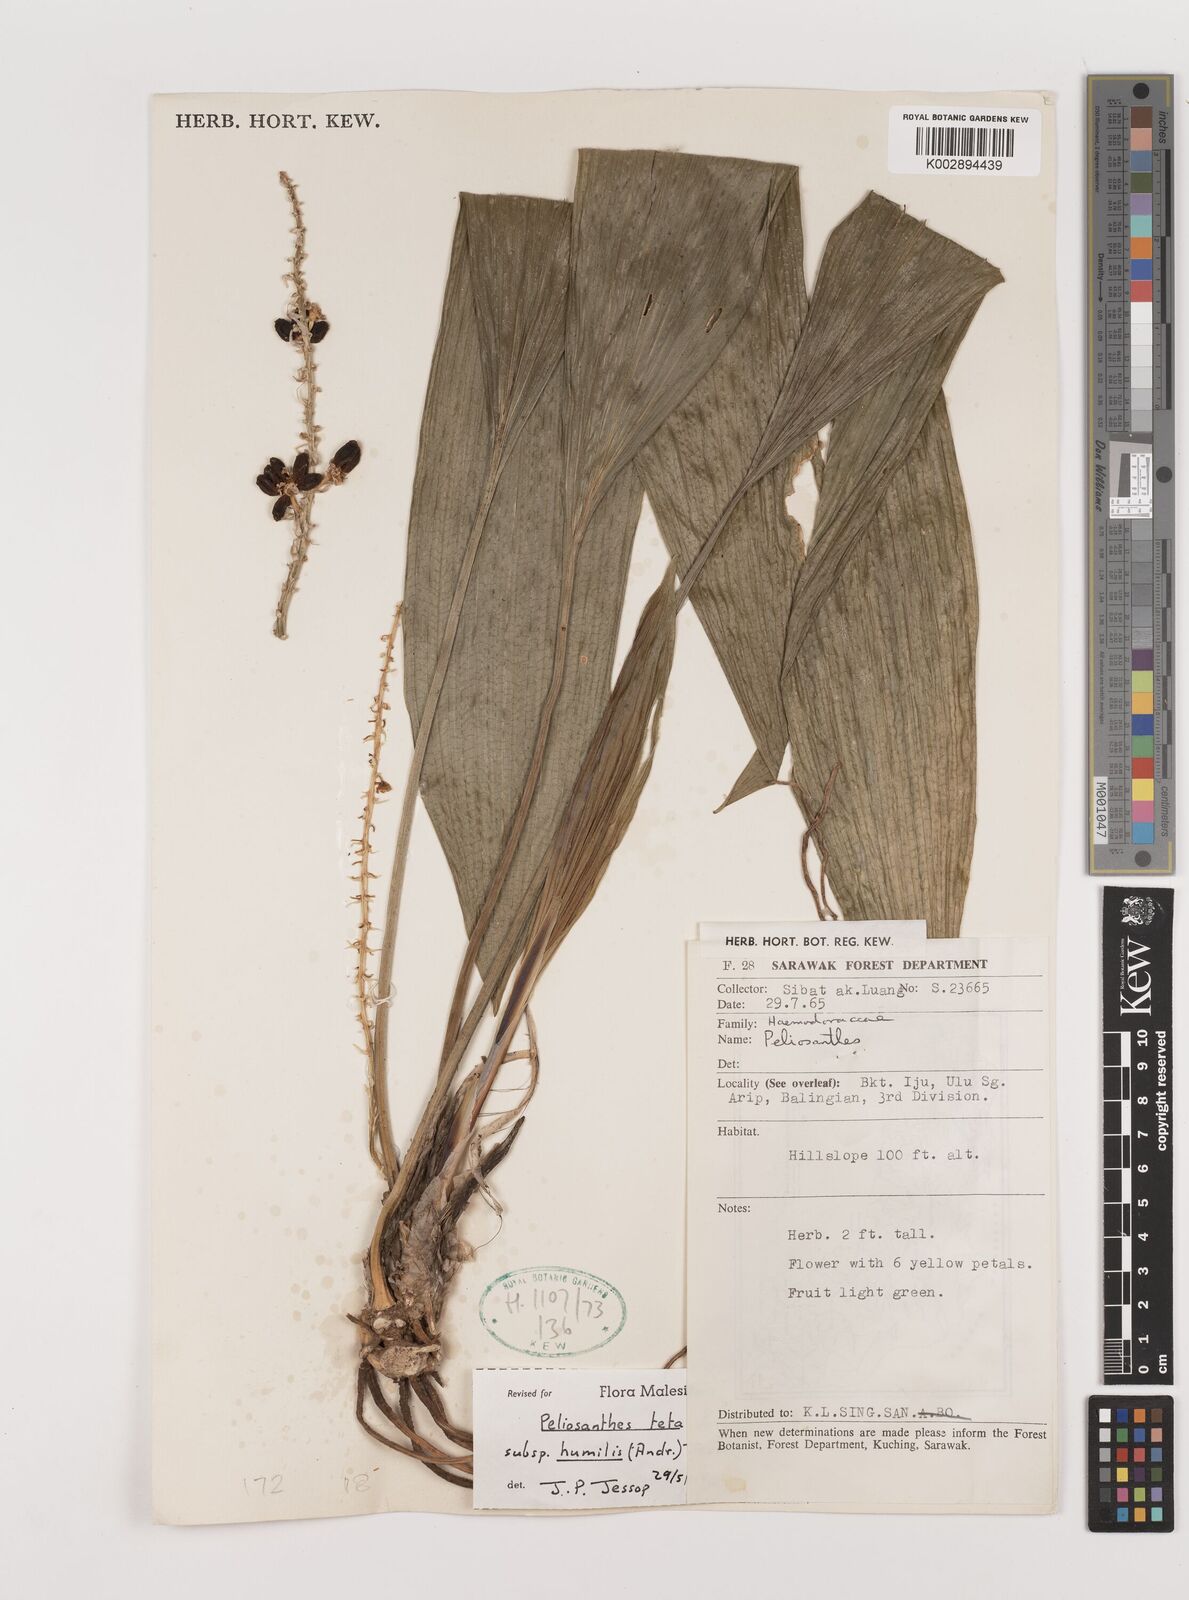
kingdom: Plantae
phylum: Tracheophyta
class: Liliopsida
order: Asparagales
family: Asparagaceae
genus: Peliosanthes
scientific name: Peliosanthes teta
